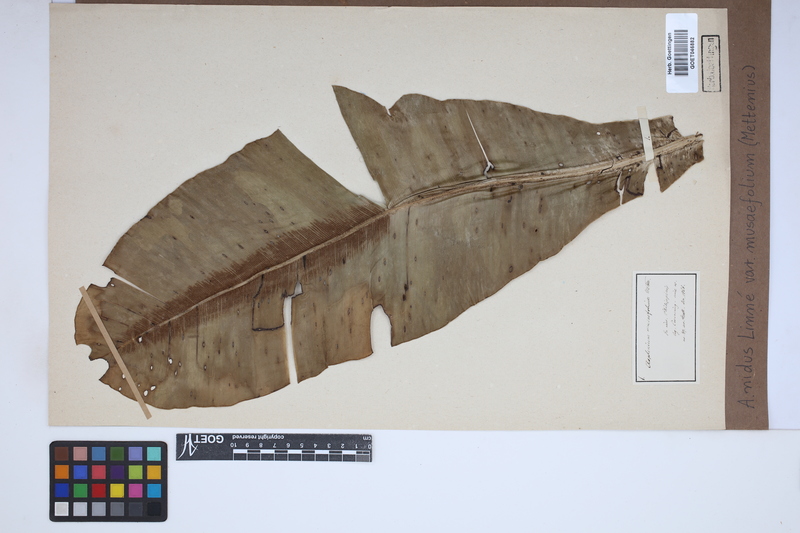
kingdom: Plantae
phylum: Tracheophyta
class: Polypodiopsida
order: Polypodiales
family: Aspleniaceae
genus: Asplenium
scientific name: Asplenium musifolium
